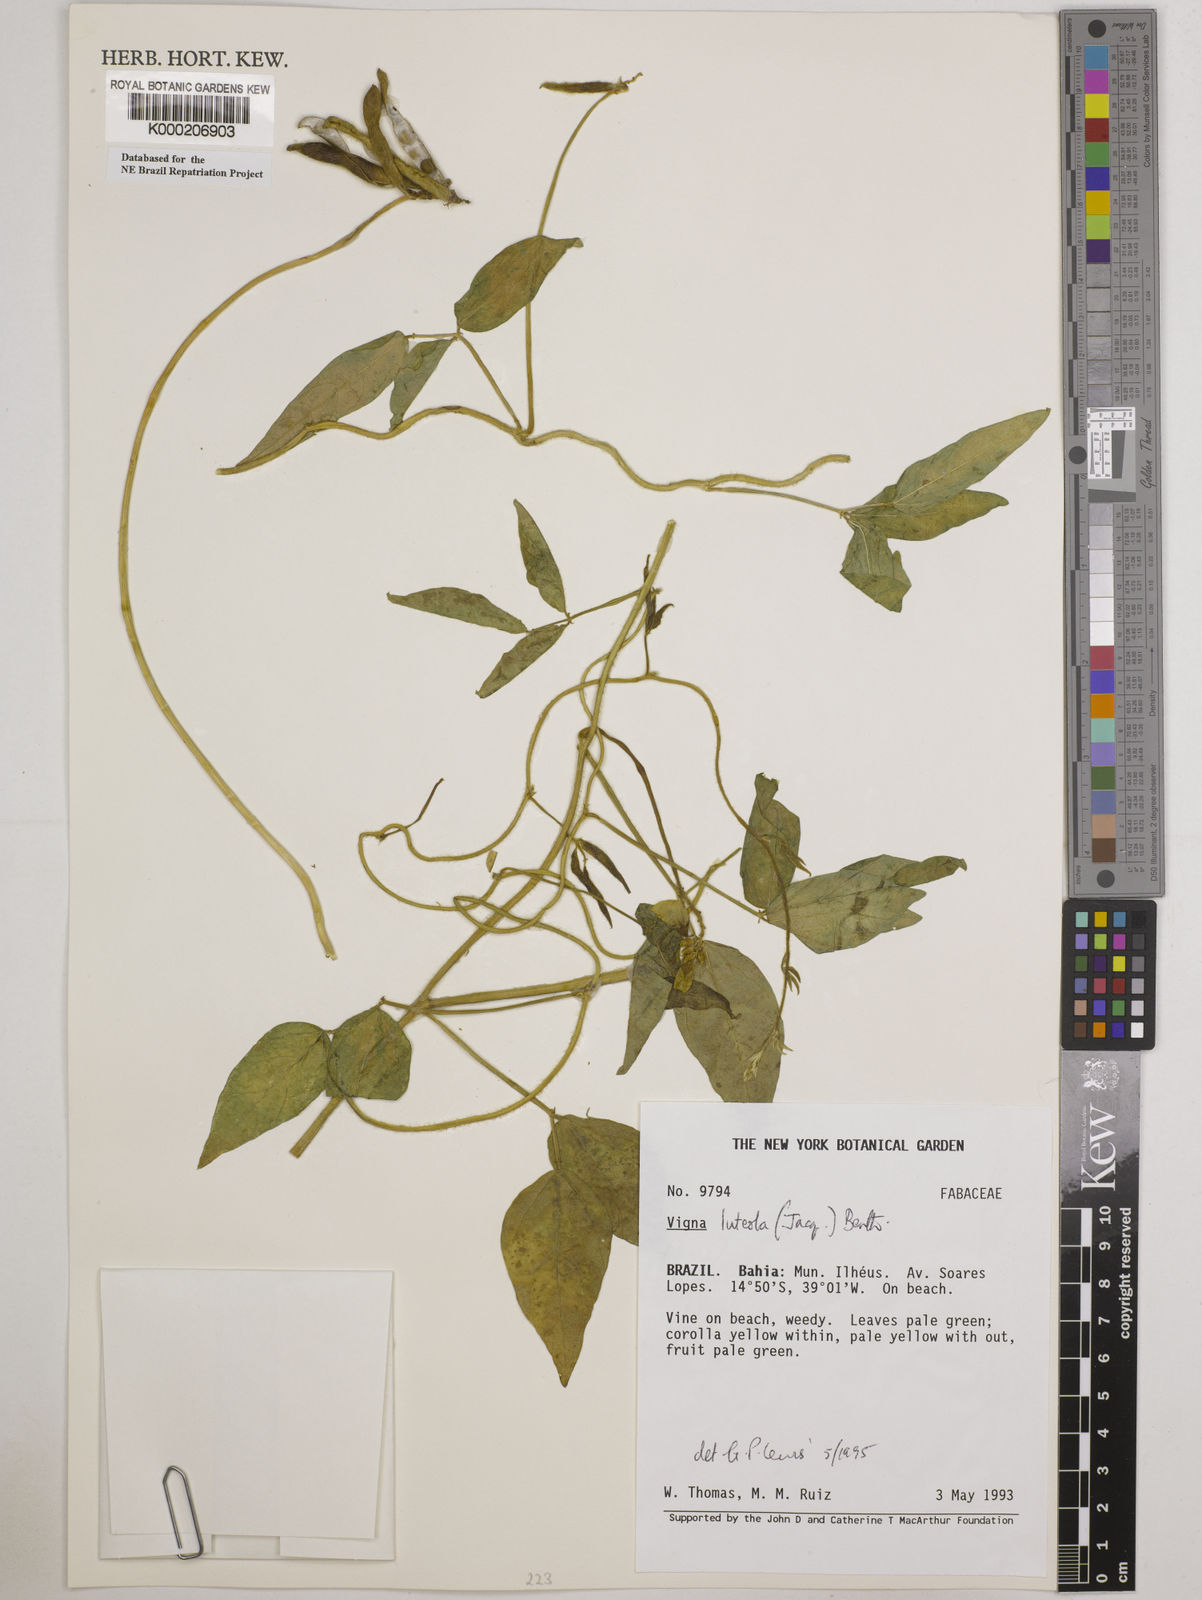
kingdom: Plantae
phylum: Tracheophyta
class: Magnoliopsida
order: Fabales
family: Fabaceae
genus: Vigna
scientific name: Vigna luteola
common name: Hairypod cowpea
